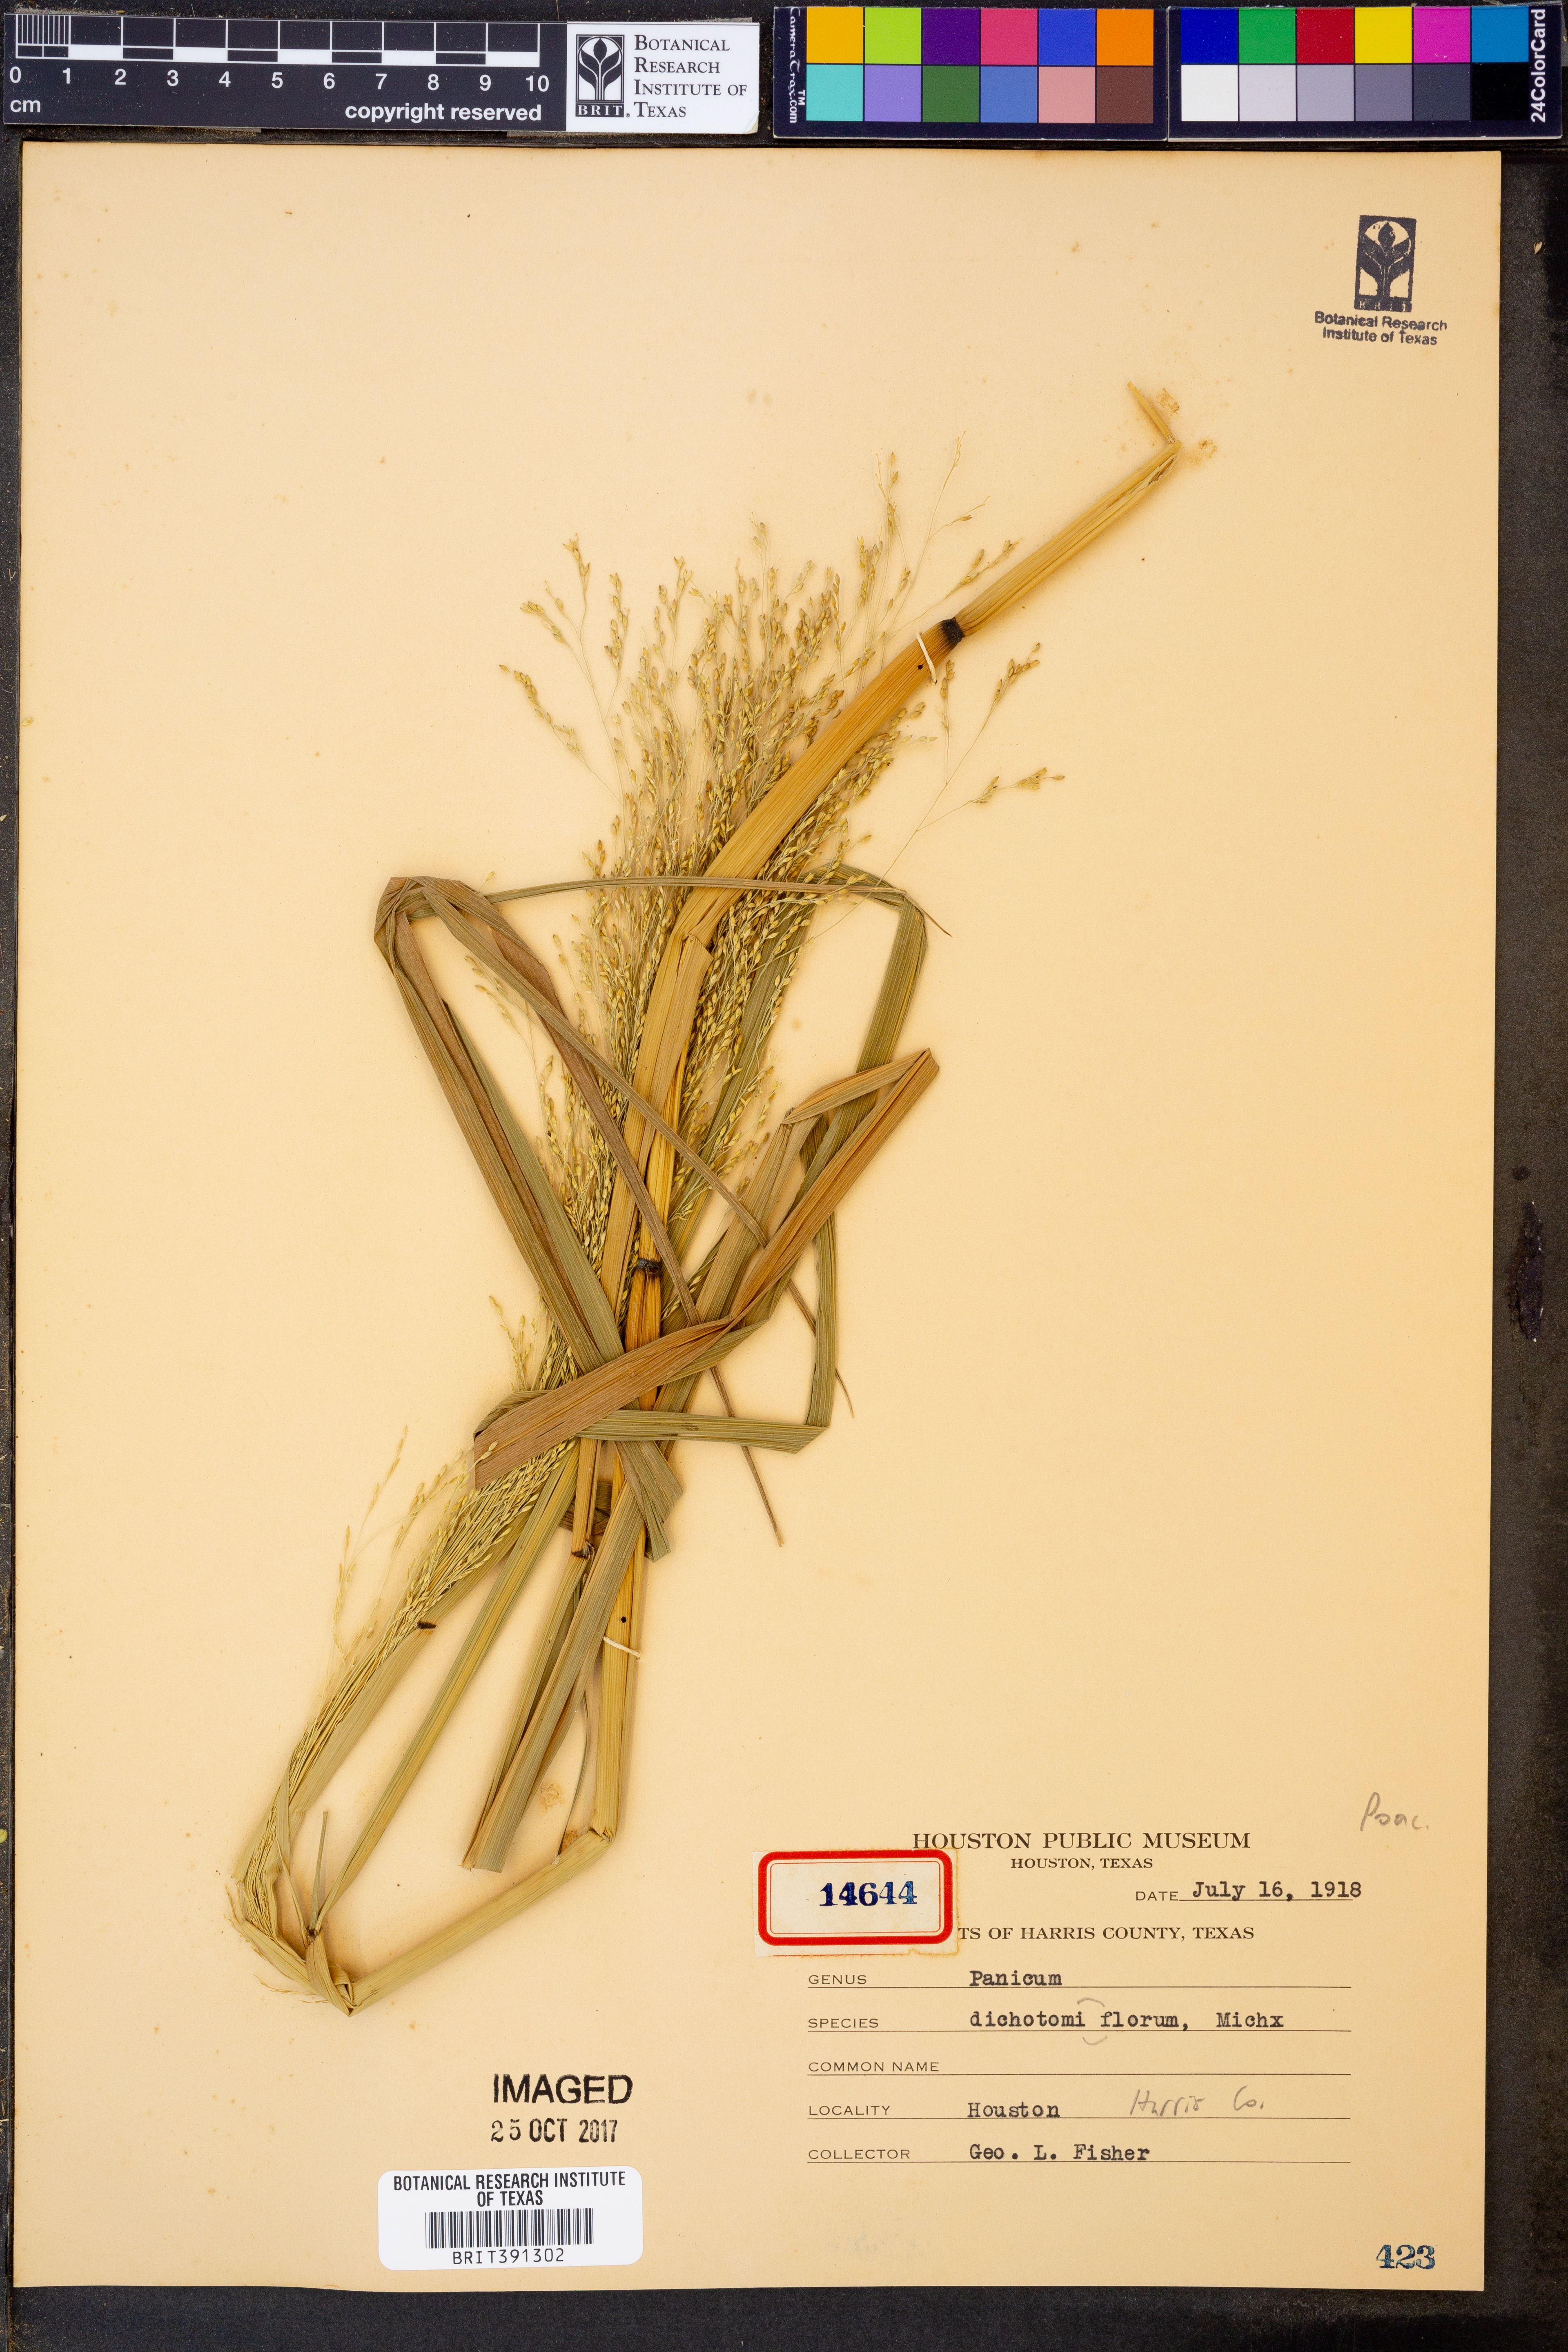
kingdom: Plantae
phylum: Tracheophyta
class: Liliopsida
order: Poales
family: Poaceae
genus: Panicum
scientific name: Panicum dichotomiflorum
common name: Autumn millet
